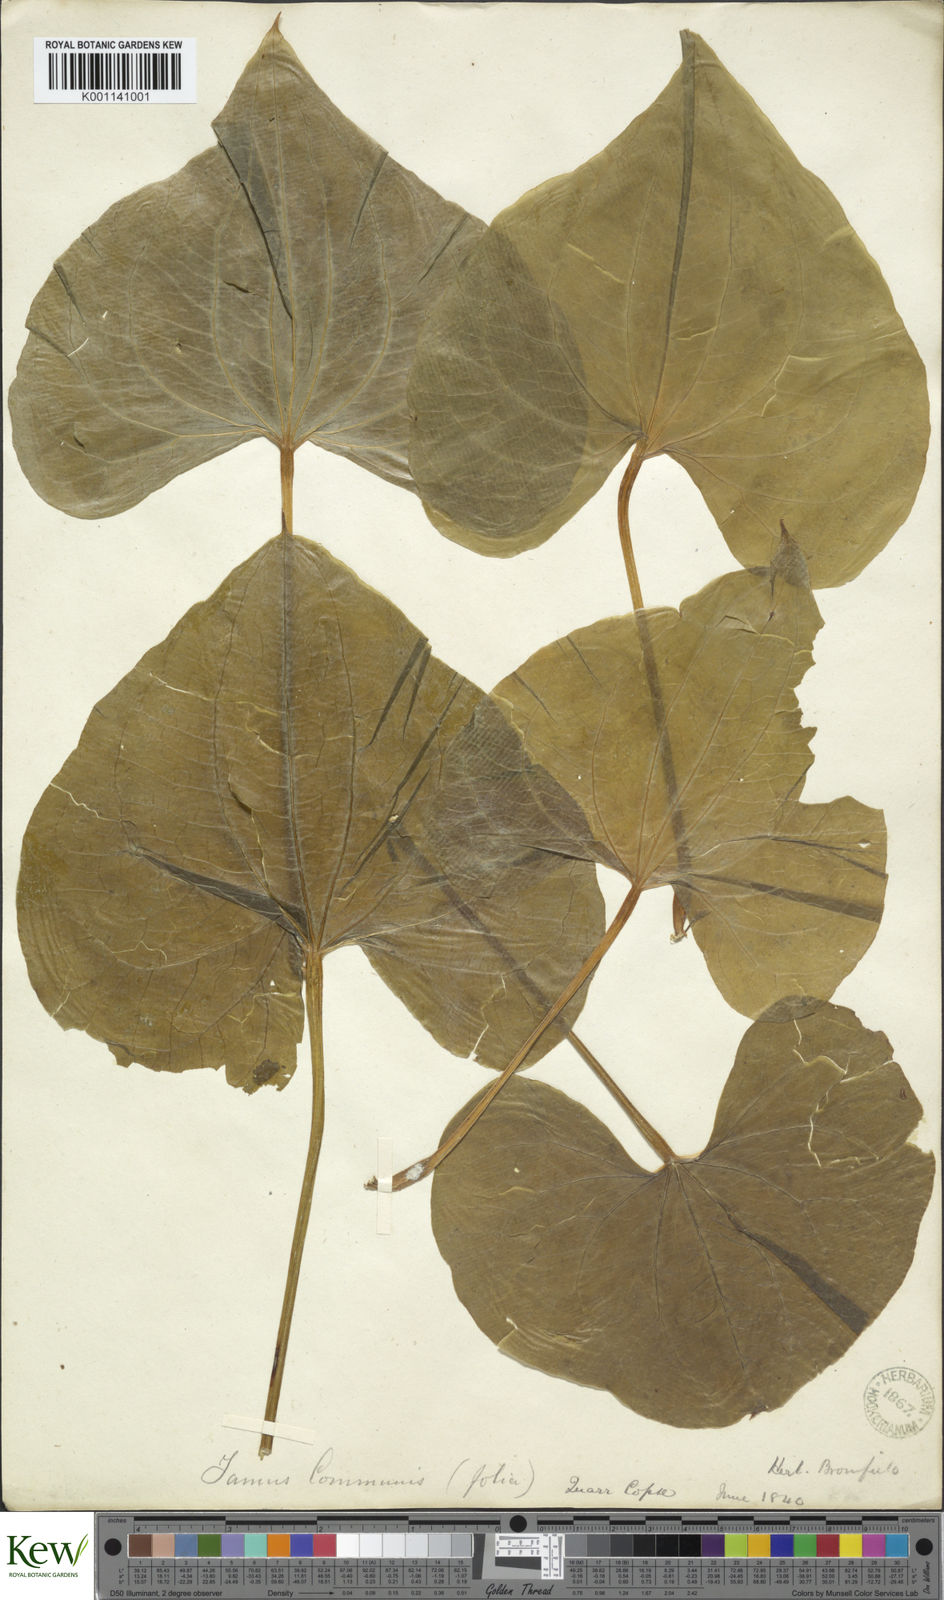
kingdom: Plantae
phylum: Tracheophyta
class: Liliopsida
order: Dioscoreales
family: Dioscoreaceae
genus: Dioscorea
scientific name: Dioscorea communis
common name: Black-bindweed
